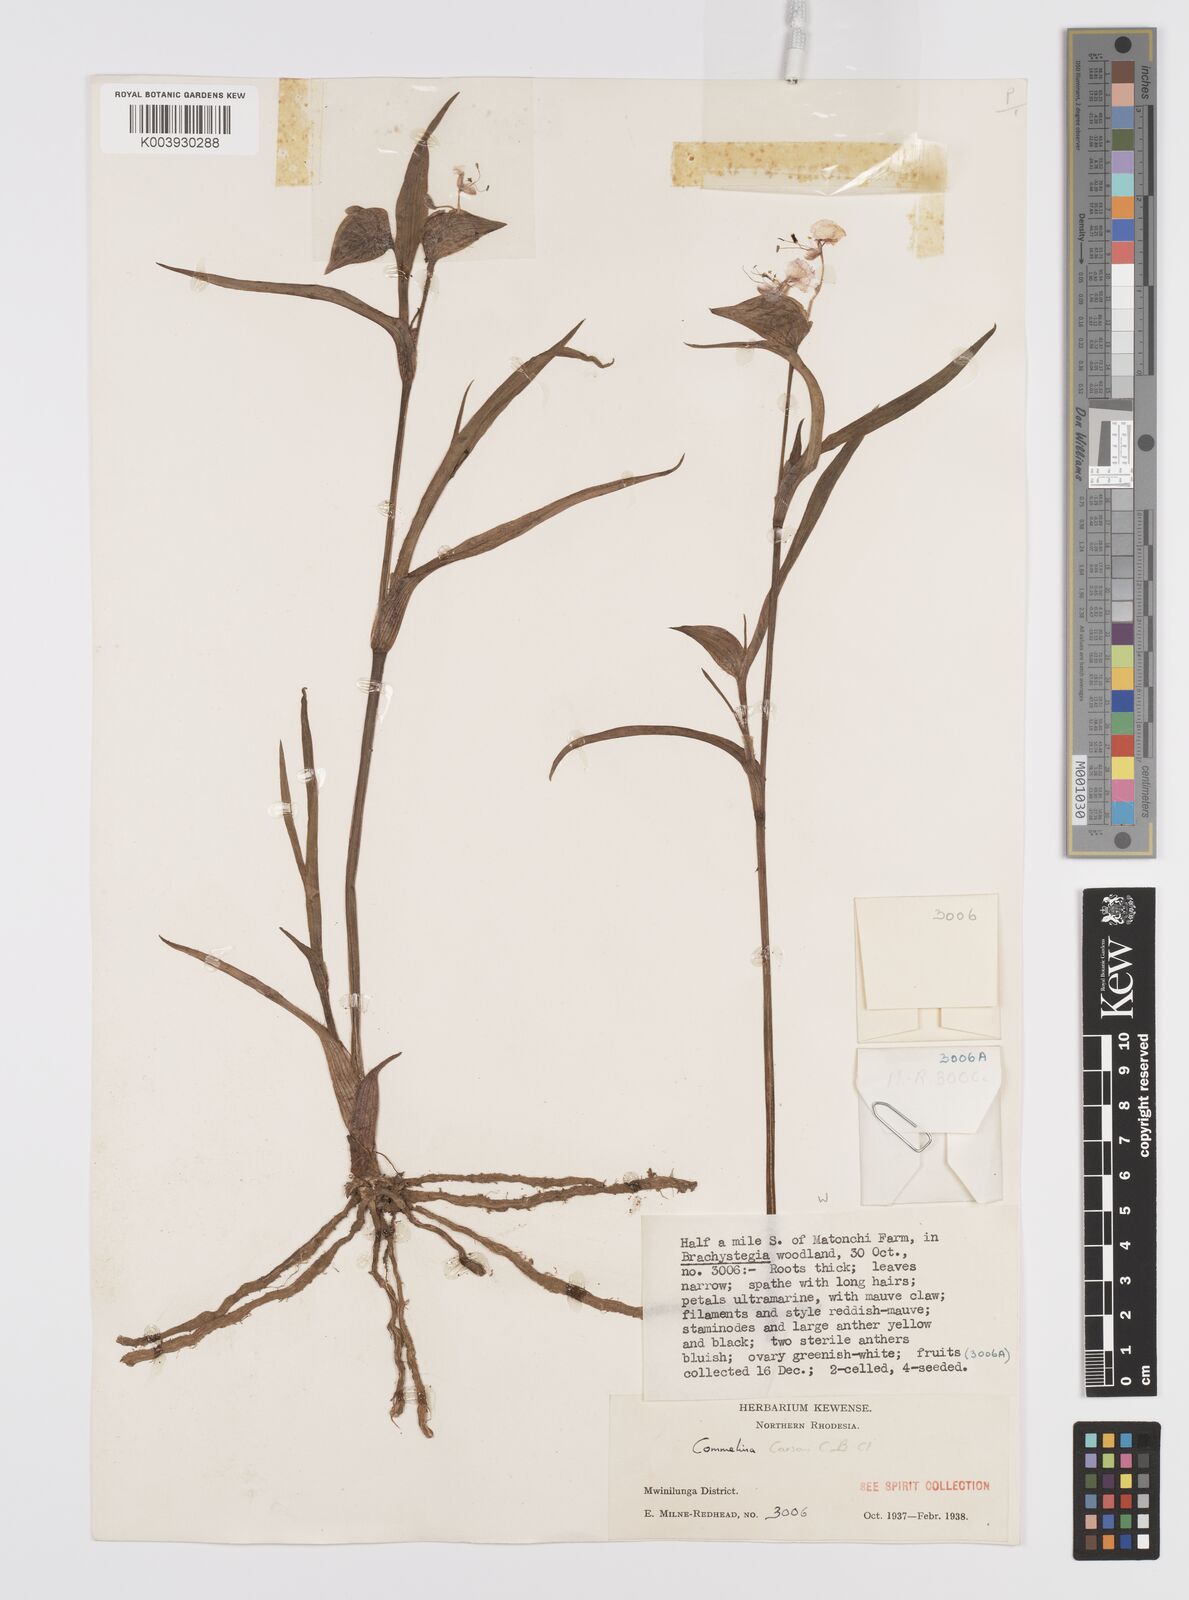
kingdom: Plantae
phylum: Tracheophyta
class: Liliopsida
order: Commelinales
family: Commelinaceae
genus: Commelina
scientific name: Commelina schweinfurthii
